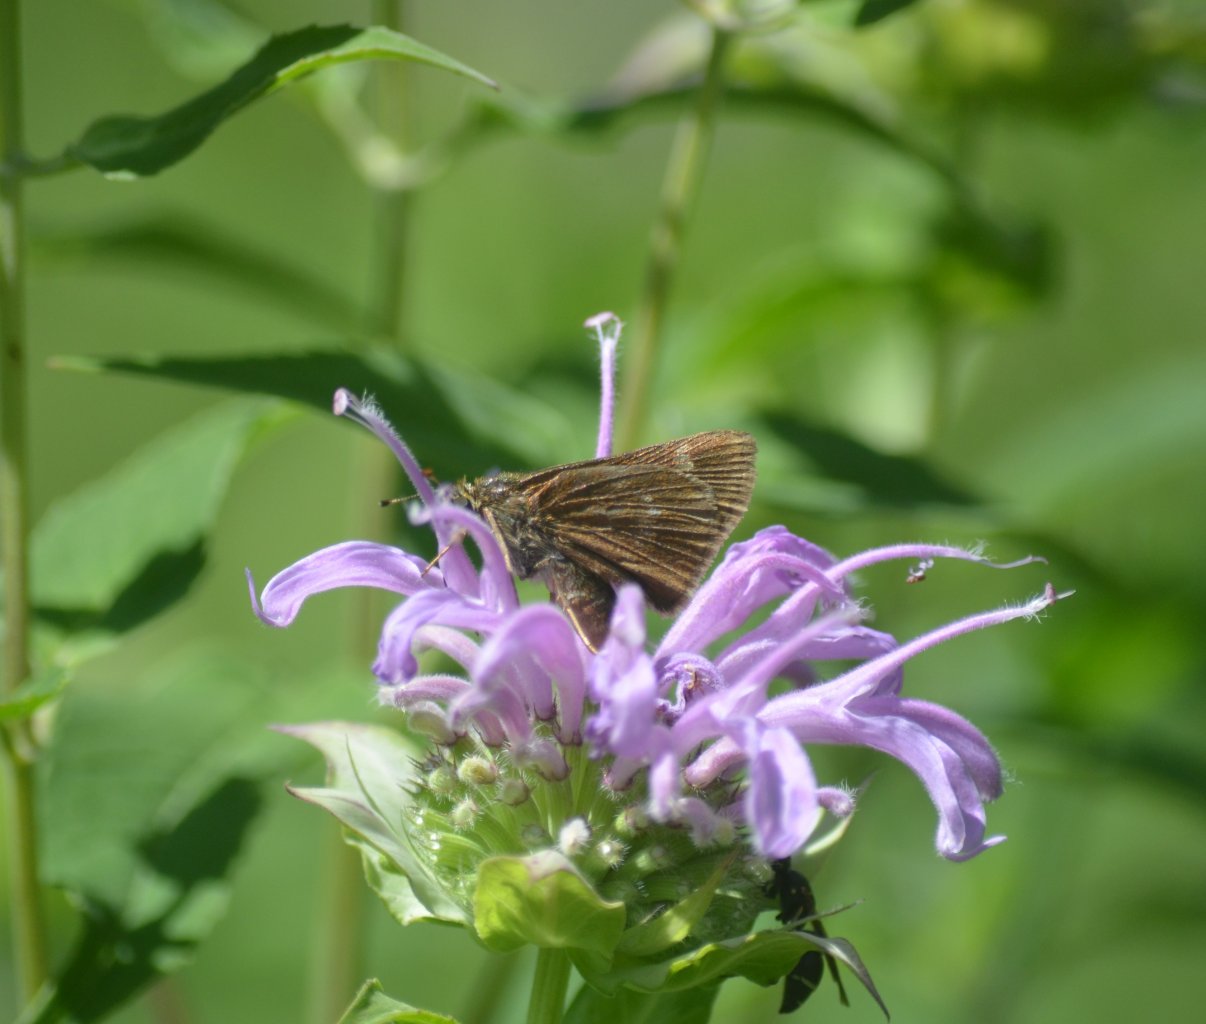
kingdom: Animalia
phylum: Arthropoda
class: Insecta
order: Lepidoptera
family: Hesperiidae
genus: Euphyes
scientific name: Euphyes vestris
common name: Dun Skipper
